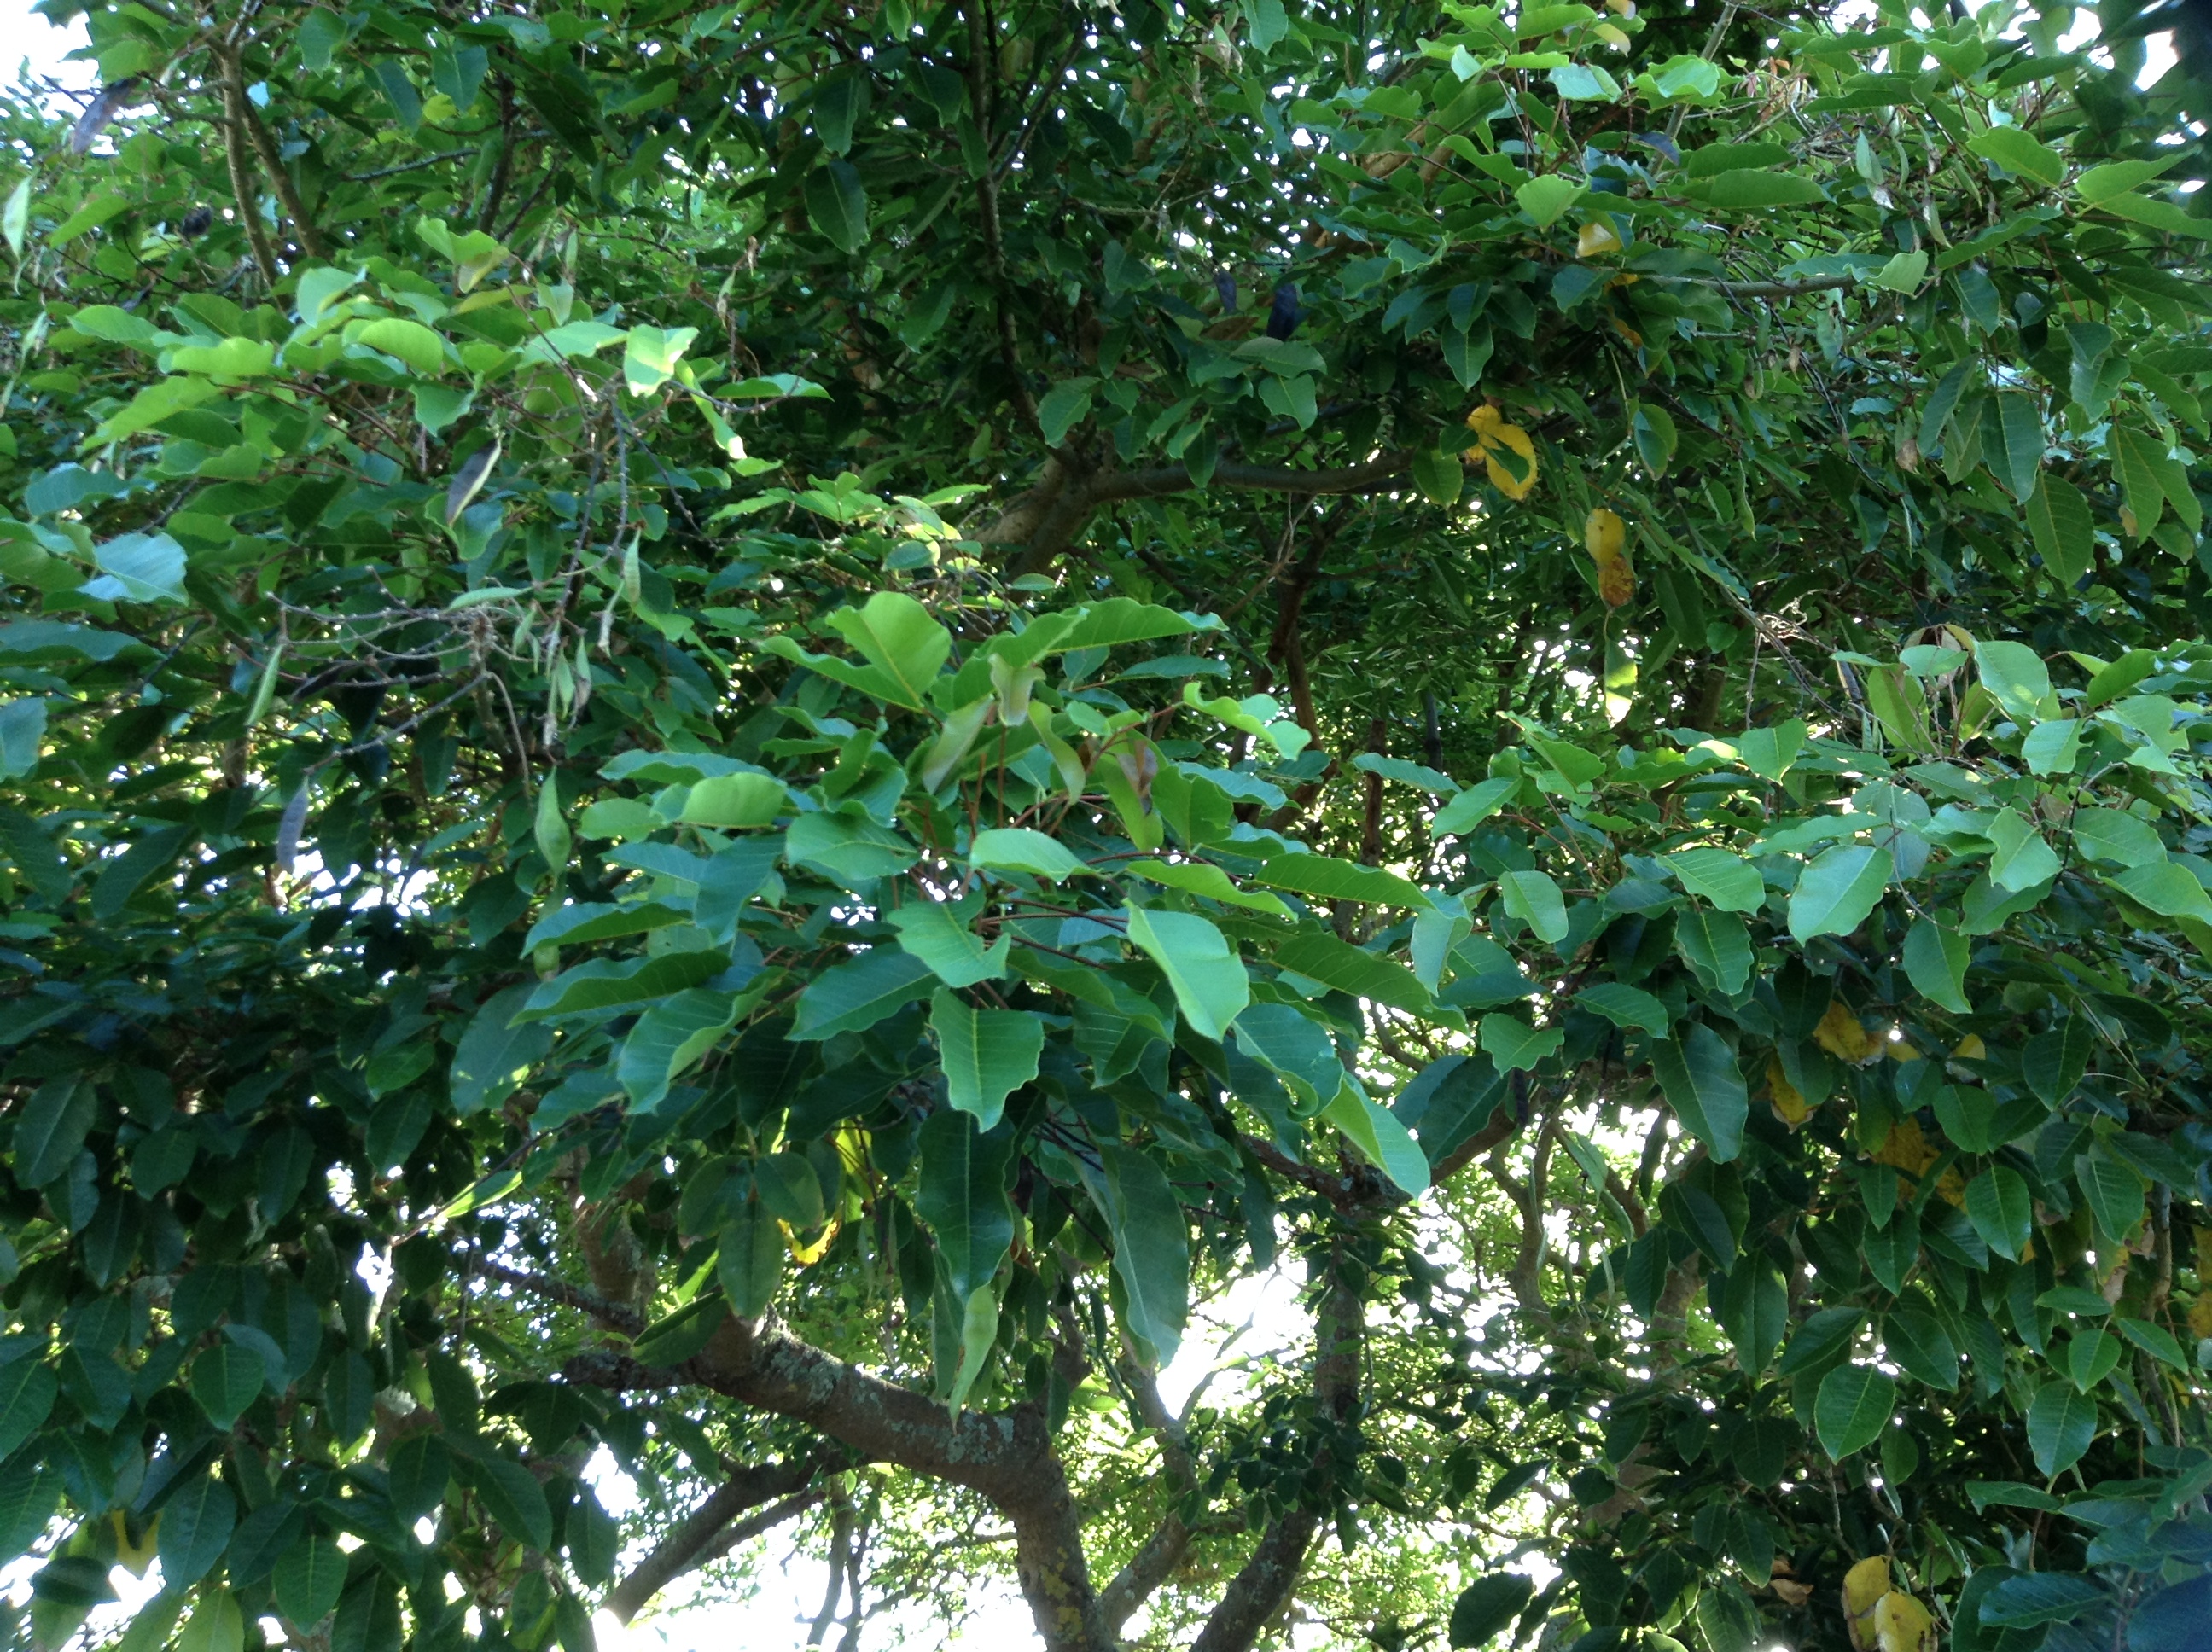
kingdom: Plantae
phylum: Tracheophyta
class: Magnoliopsida
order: Fabales
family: Fabaceae
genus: Erythrina
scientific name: Erythrina falcata
